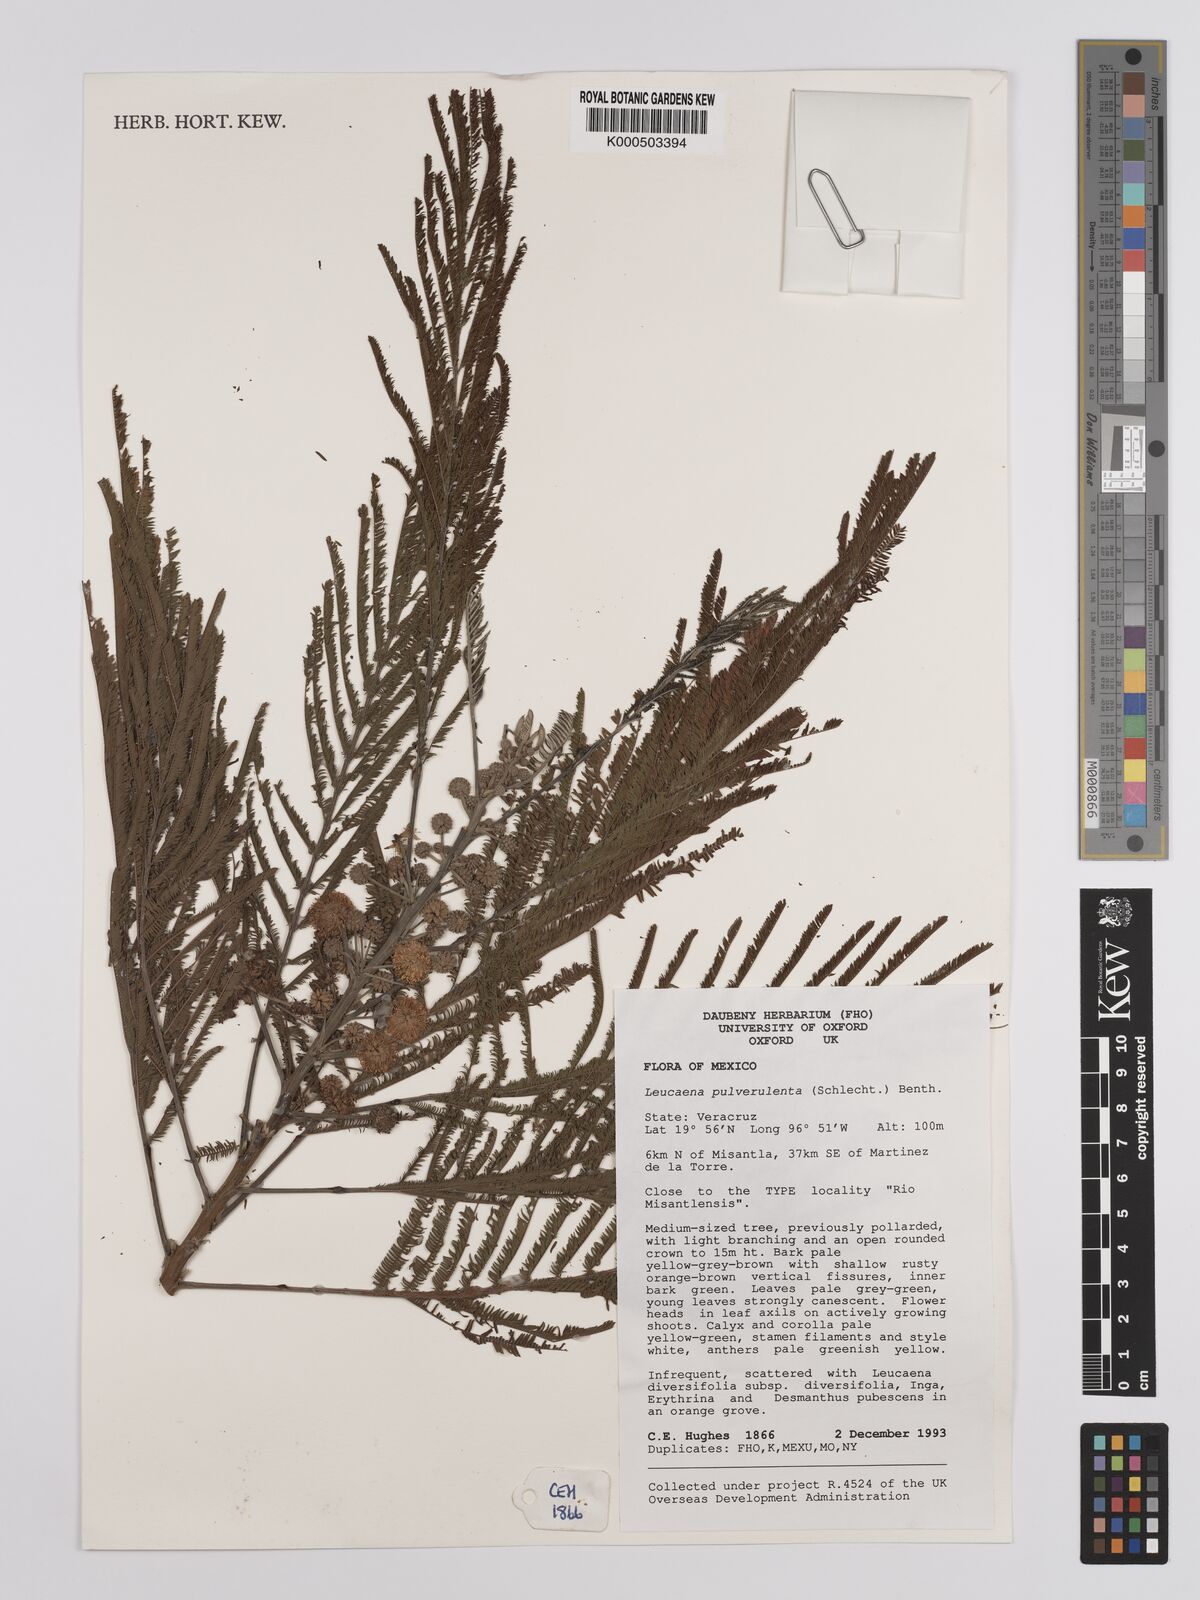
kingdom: Plantae
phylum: Tracheophyta
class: Magnoliopsida
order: Fabales
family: Fabaceae
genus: Leucaena
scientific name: Leucaena pulverulenta
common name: Great leadtree
